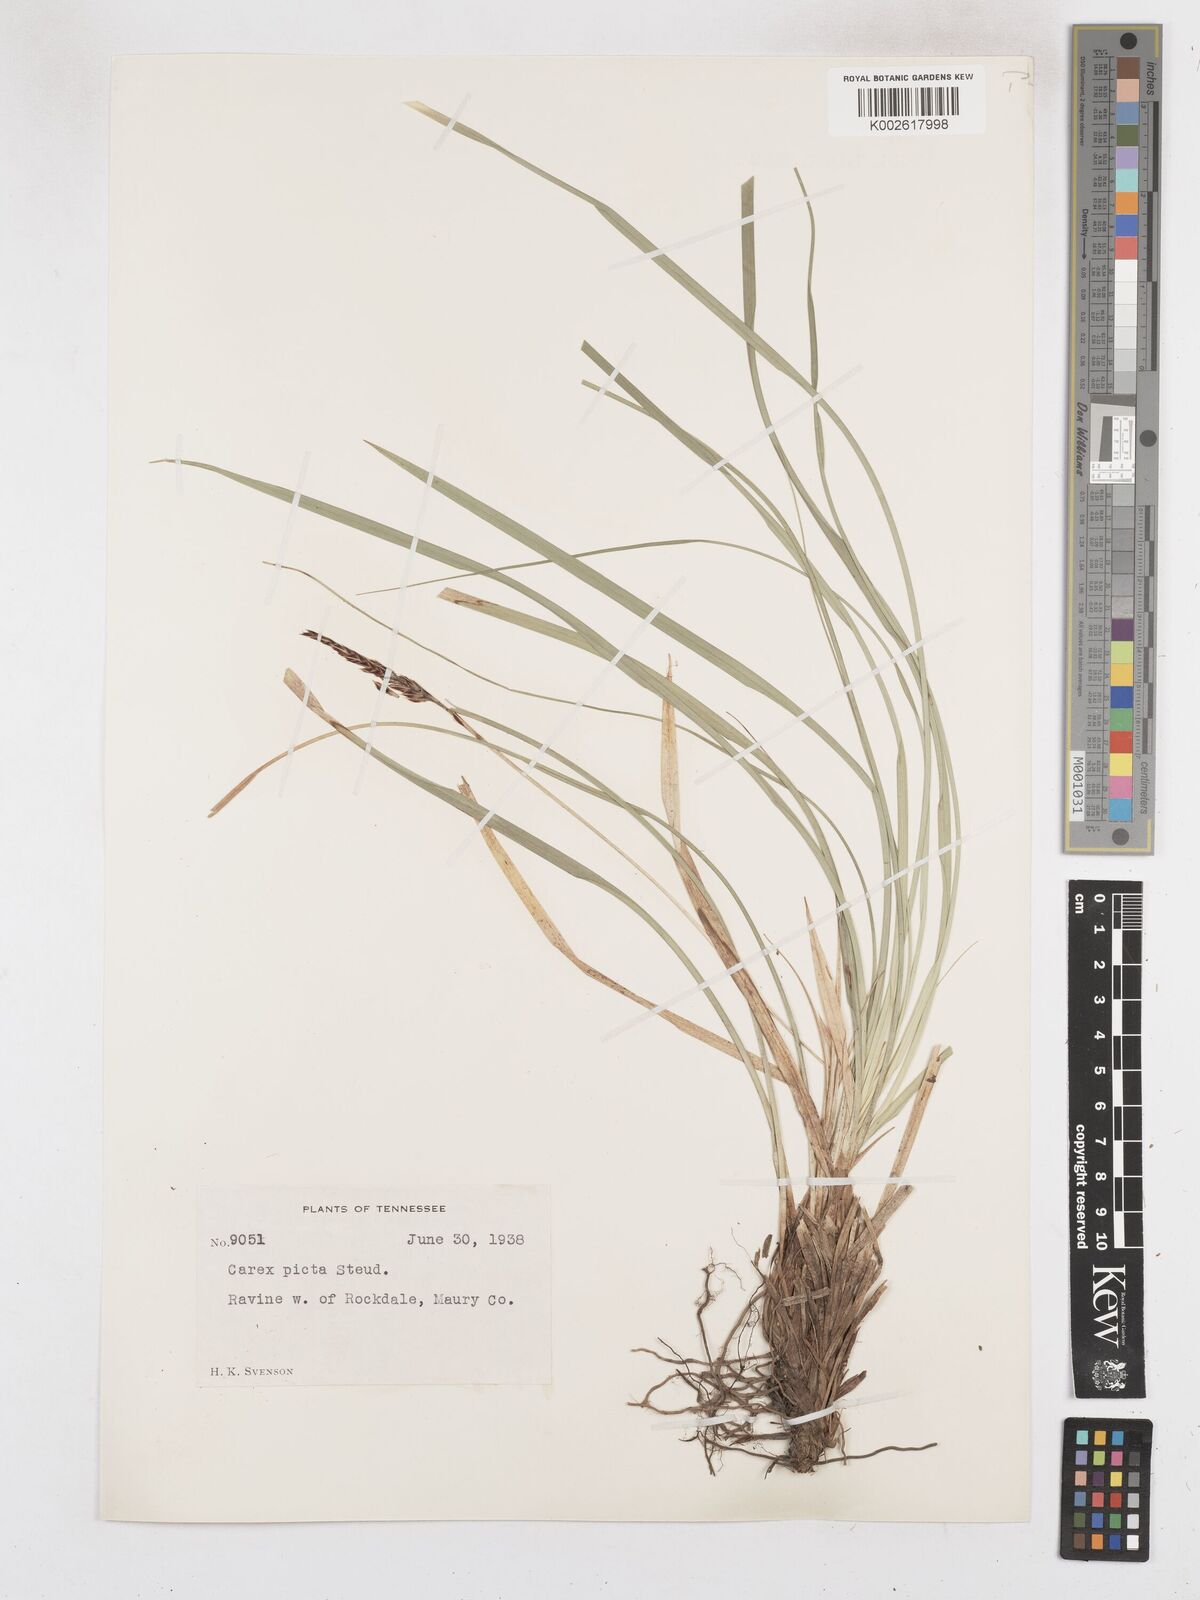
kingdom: Plantae
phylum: Tracheophyta
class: Liliopsida
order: Poales
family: Cyperaceae
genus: Carex
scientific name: Carex picta
